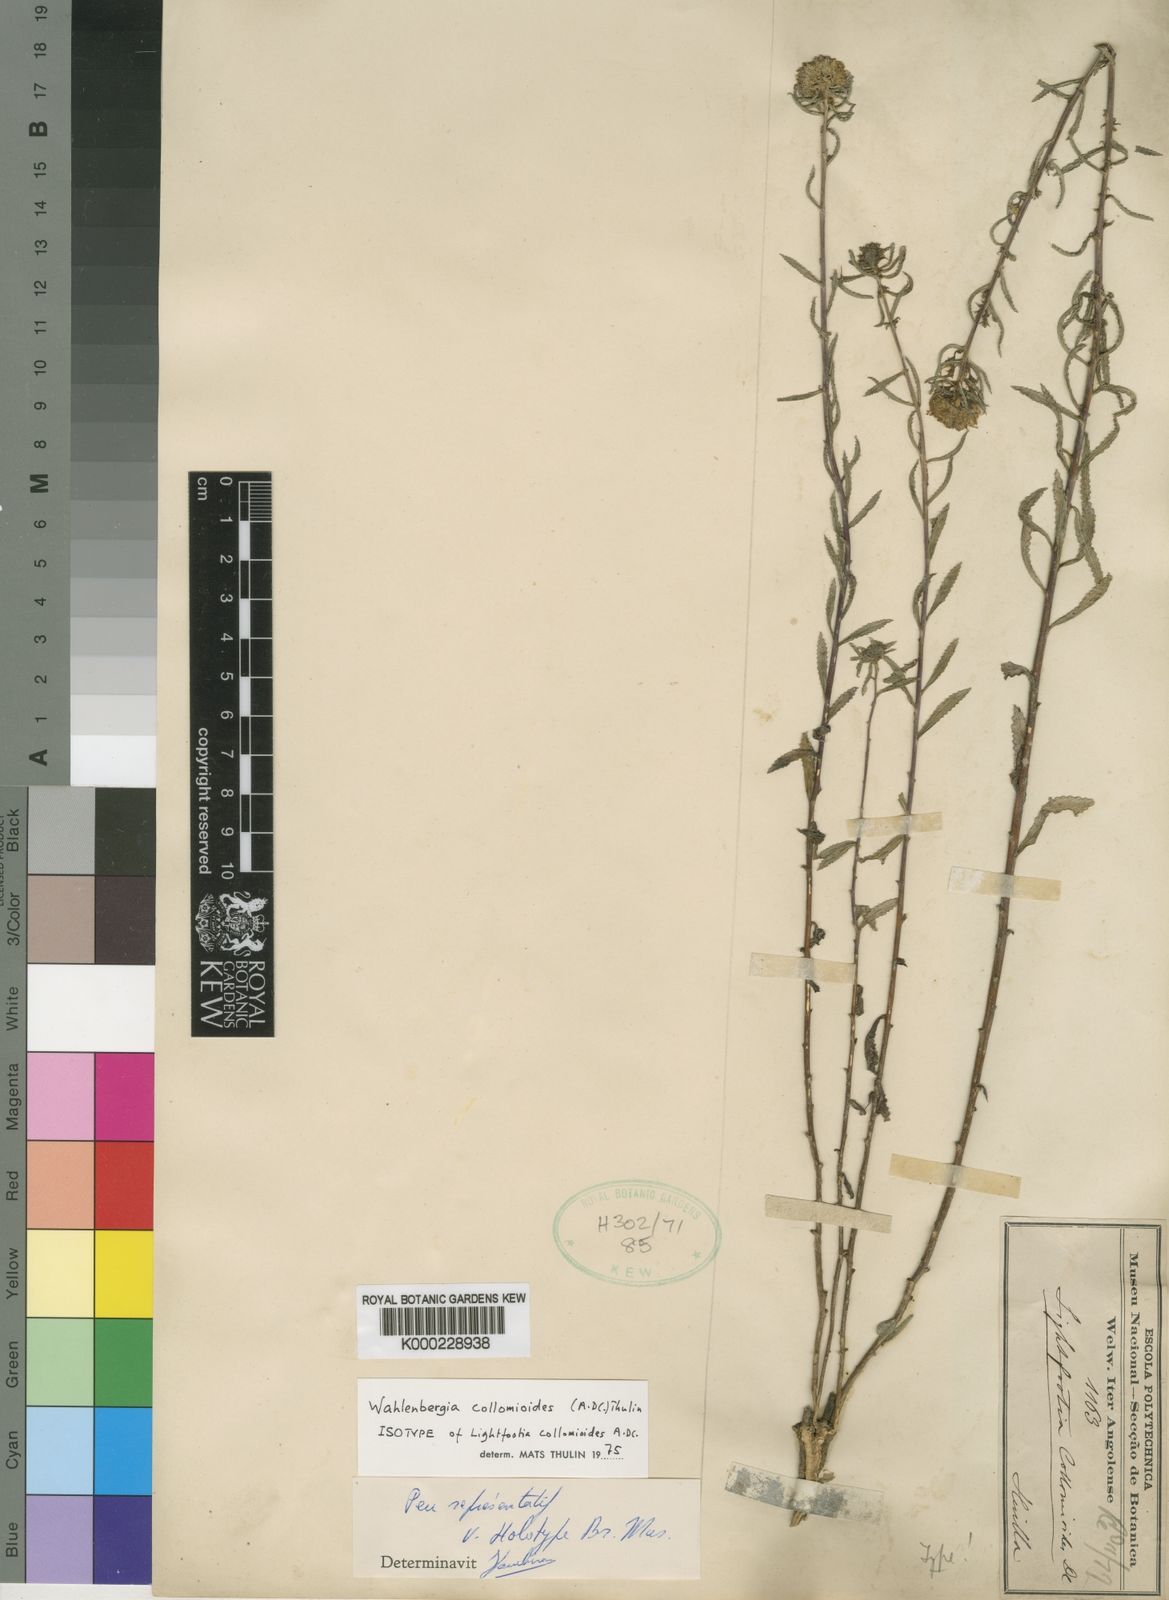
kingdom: Plantae
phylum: Tracheophyta
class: Magnoliopsida
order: Asterales
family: Campanulaceae
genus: Wahlenbergia
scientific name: Wahlenbergia collomioides
